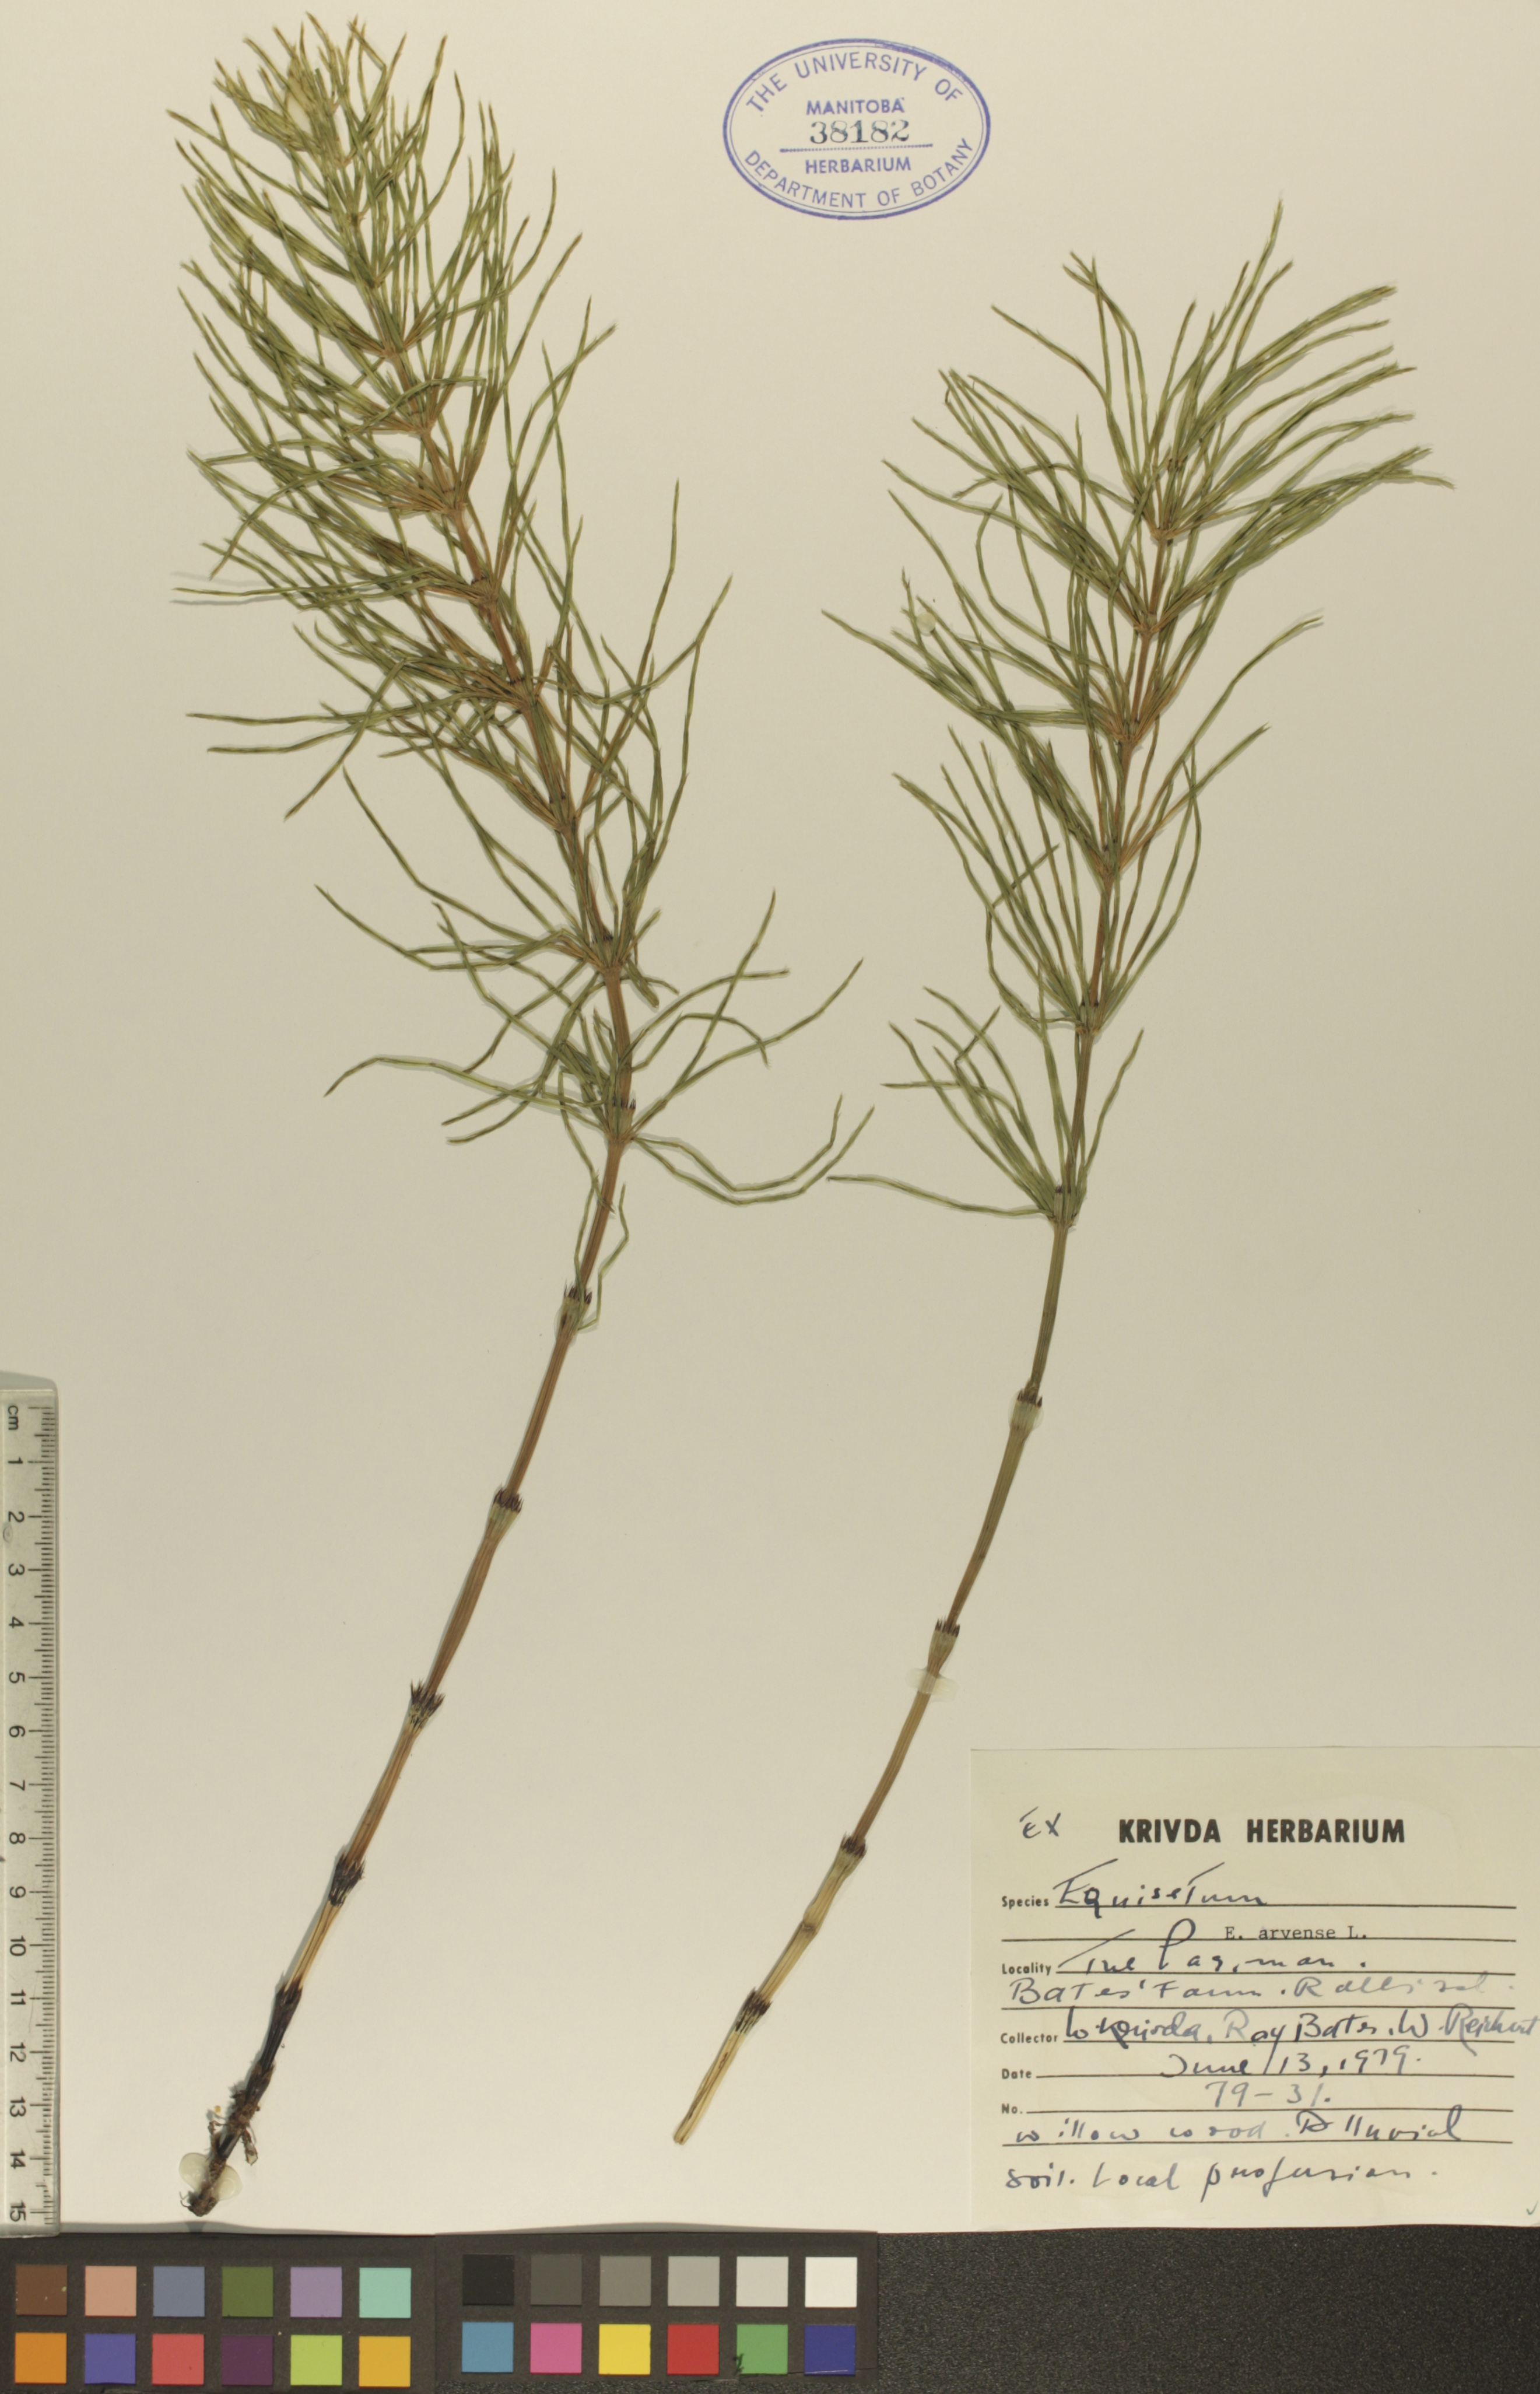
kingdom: Plantae
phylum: Tracheophyta
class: Polypodiopsida
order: Equisetales
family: Equisetaceae
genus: Equisetum
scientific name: Equisetum arvense
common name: Field horsetail
